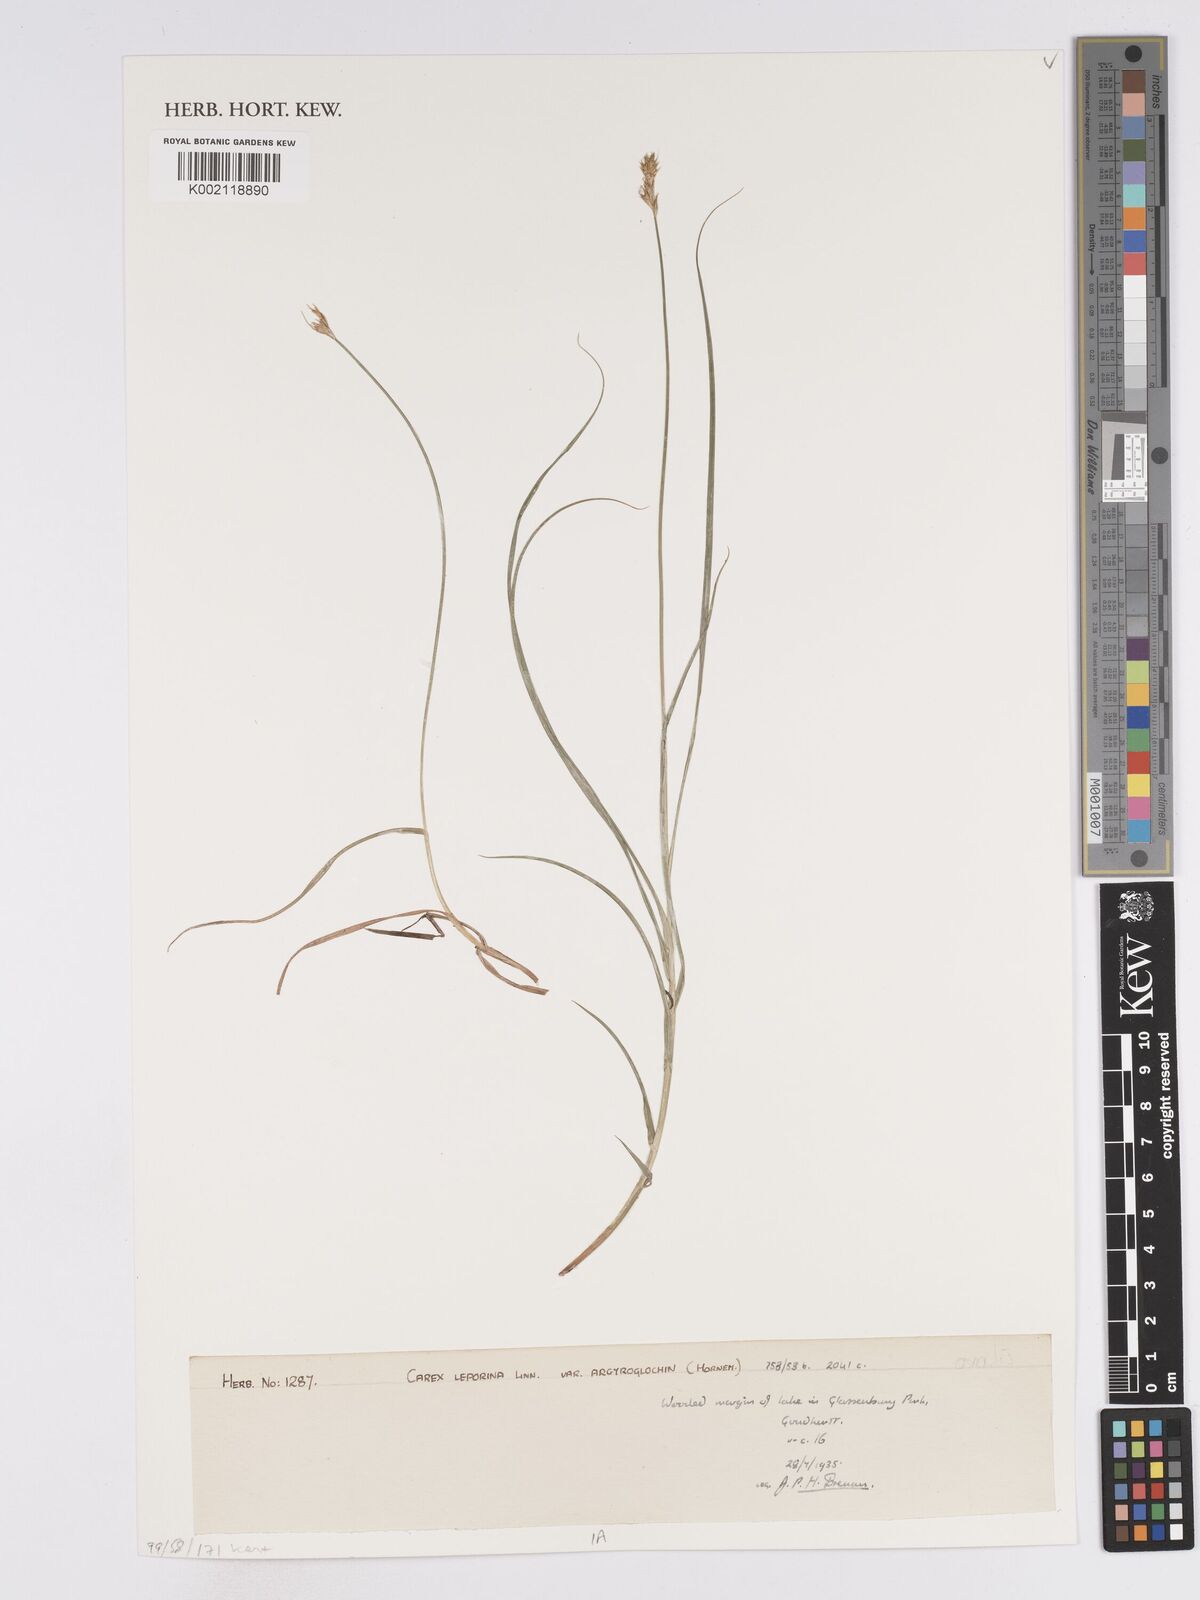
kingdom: Plantae
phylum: Tracheophyta
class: Liliopsida
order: Poales
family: Cyperaceae
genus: Carex
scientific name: Carex leporina
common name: Oval sedge
